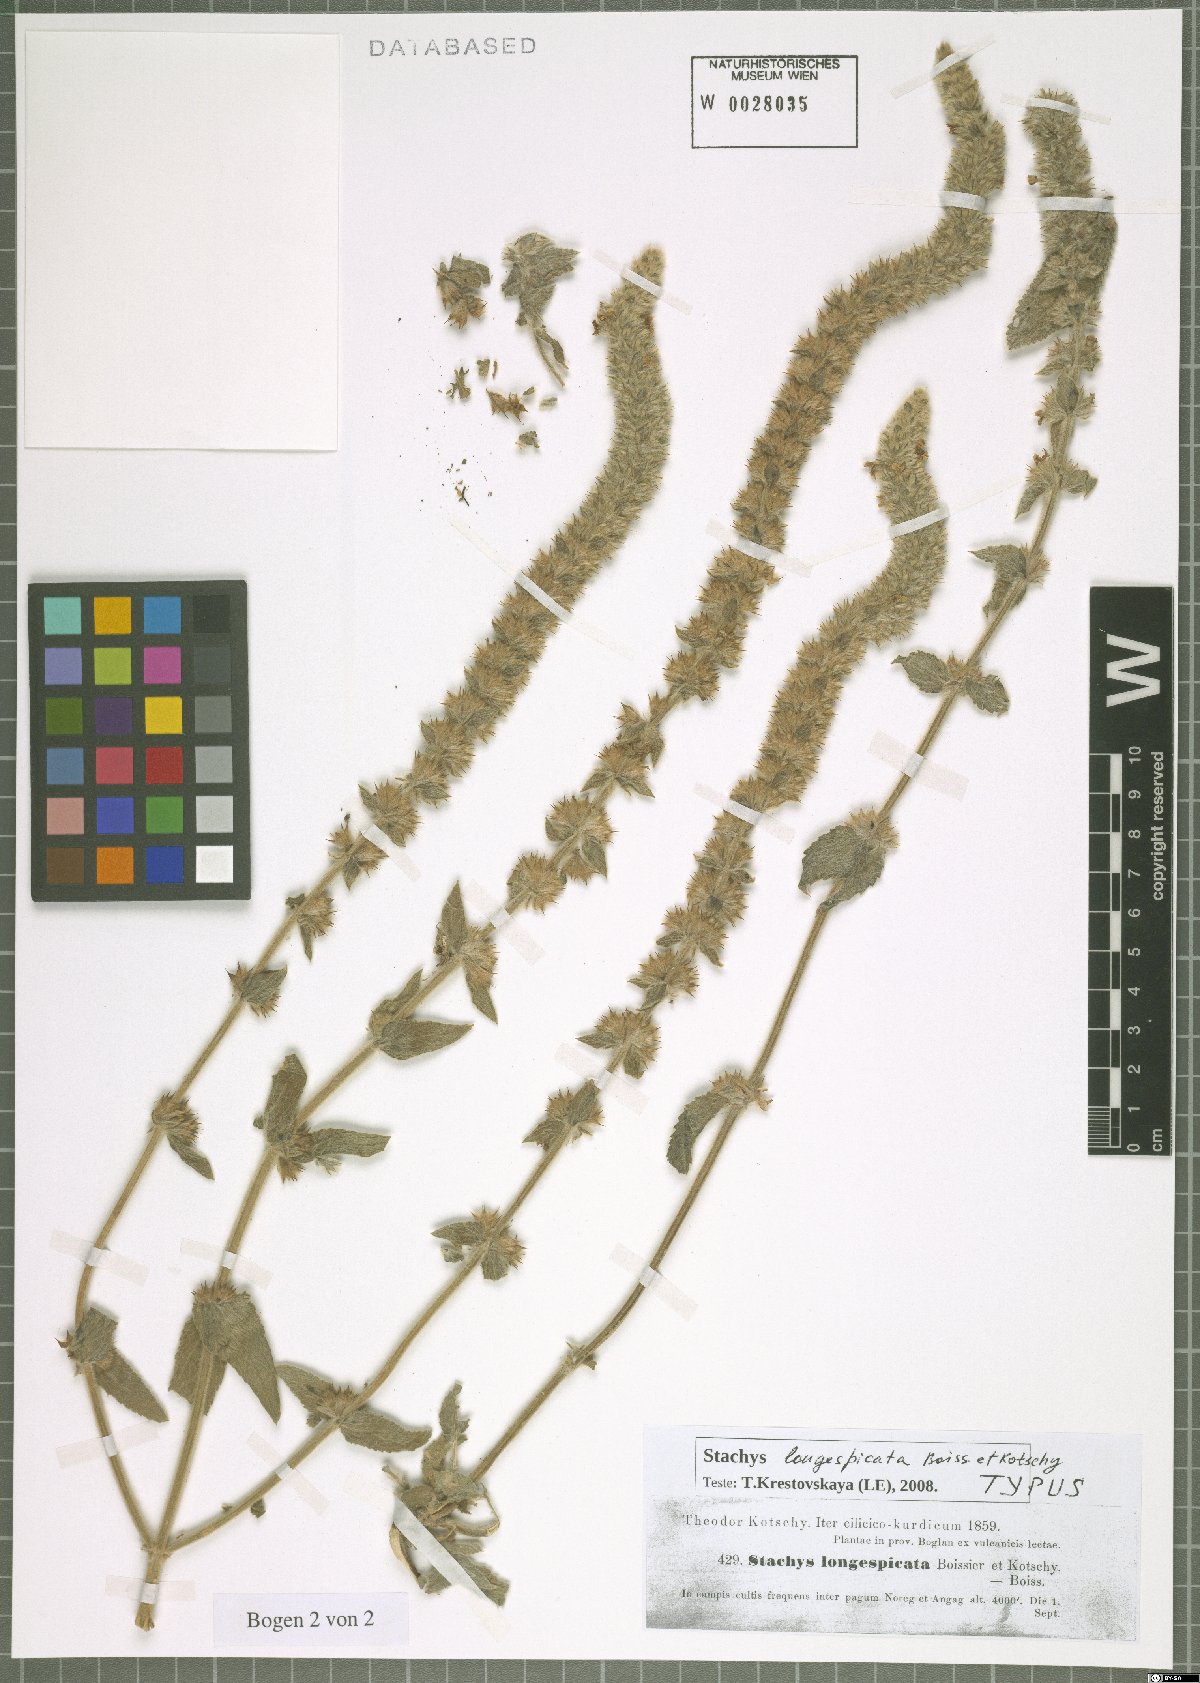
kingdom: Plantae
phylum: Tracheophyta
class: Magnoliopsida
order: Lamiales
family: Lamiaceae
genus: Stachys
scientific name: Stachys longispicata
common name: Longspike hedgenettle
